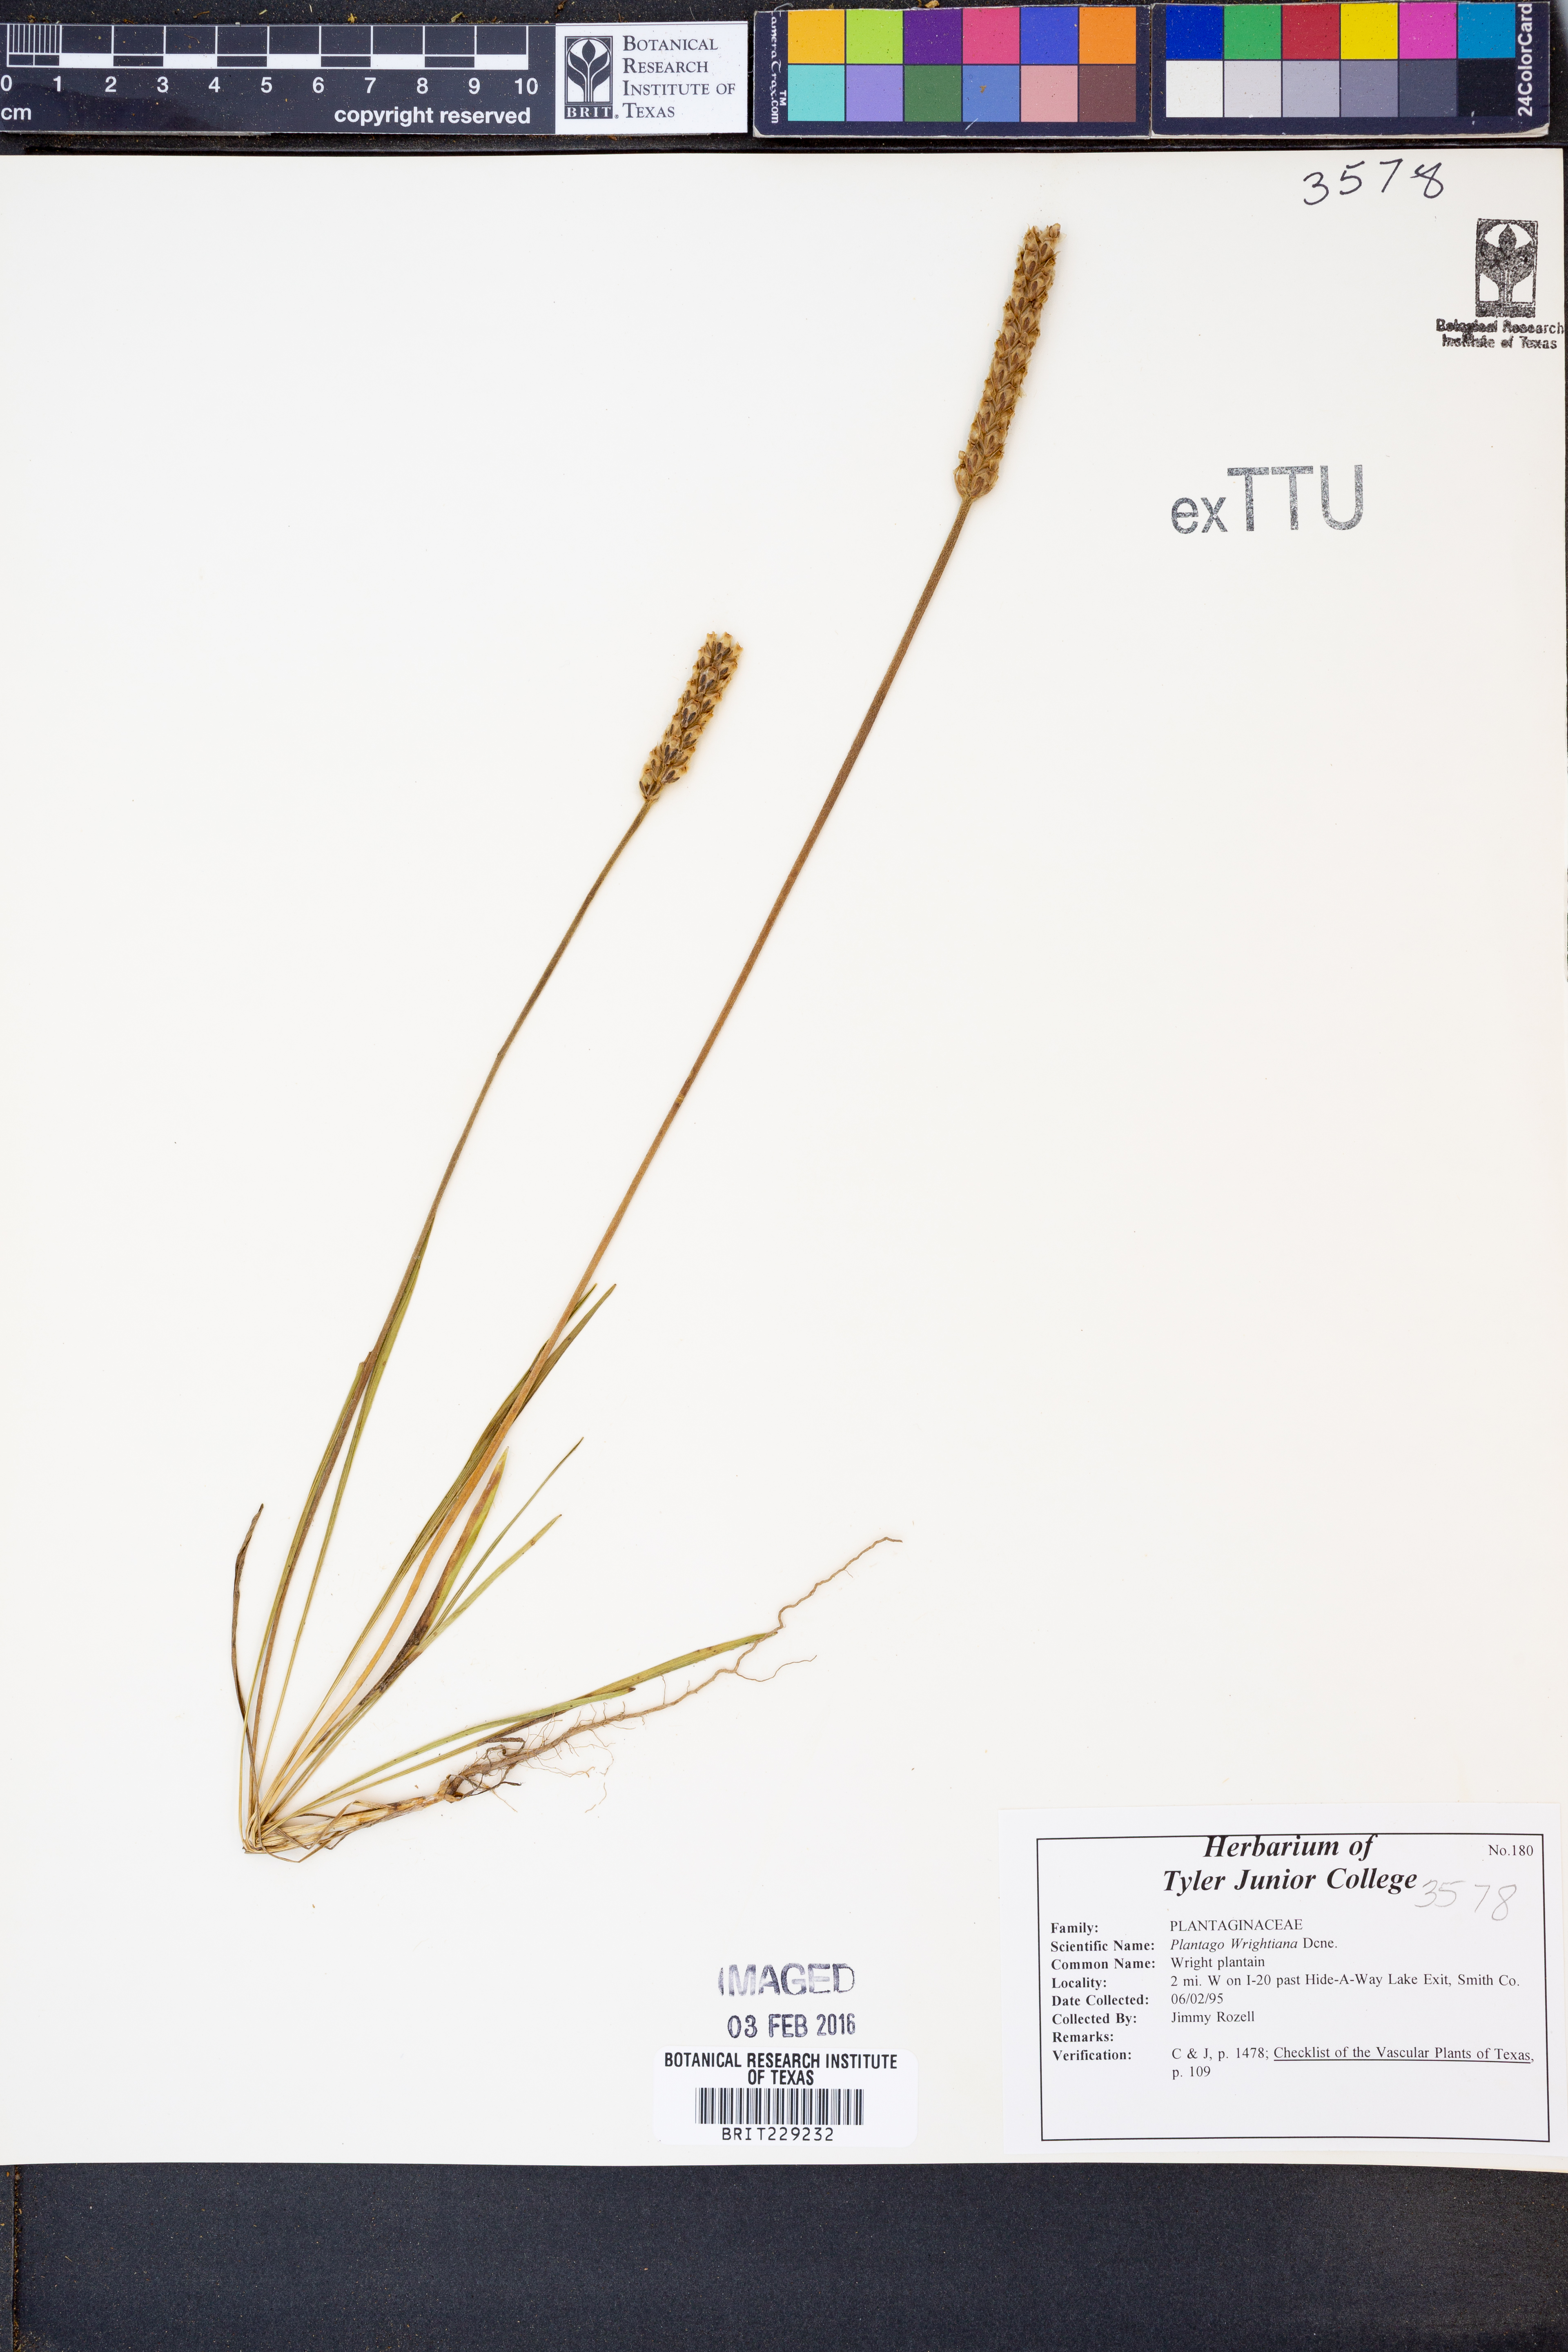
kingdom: Plantae
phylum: Tracheophyta
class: Magnoliopsida
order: Lamiales
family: Plantaginaceae
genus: Plantago
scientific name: Plantago wrightiana
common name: Wright's plantain
